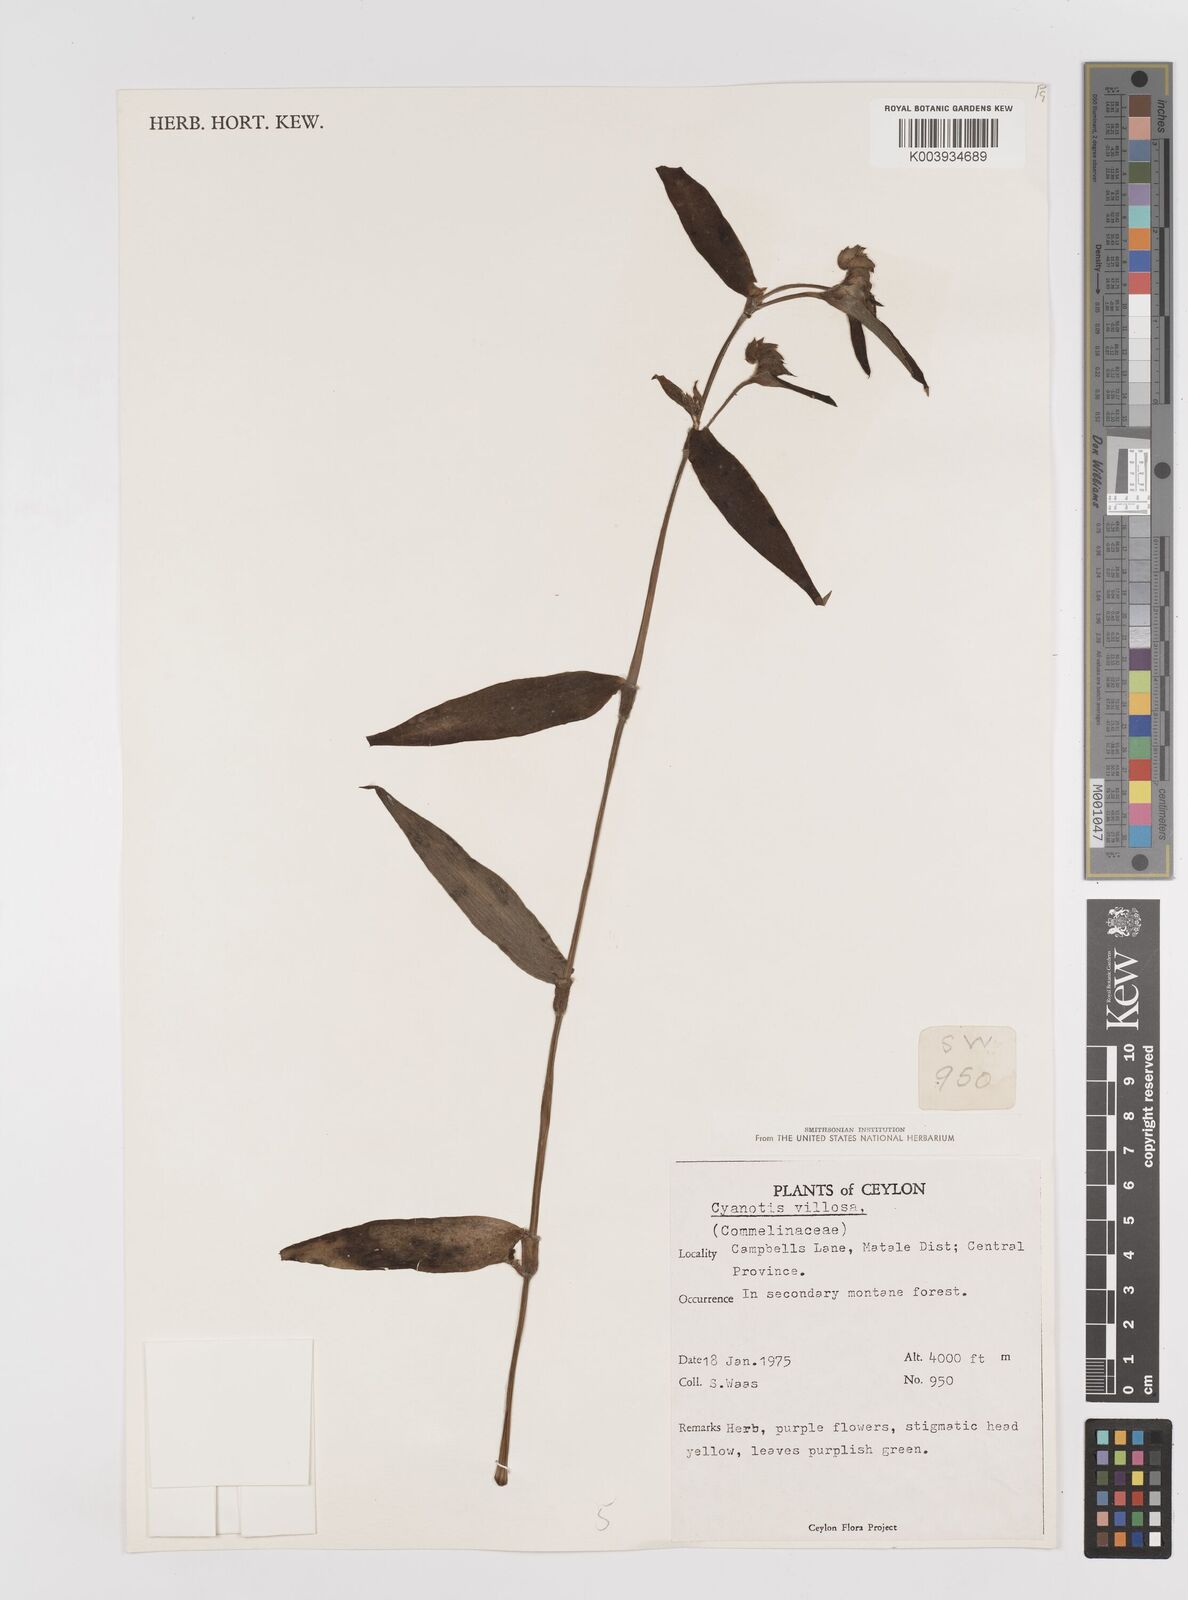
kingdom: Plantae
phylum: Tracheophyta
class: Liliopsida
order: Commelinales
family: Commelinaceae
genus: Cyanotis
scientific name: Cyanotis villosa
